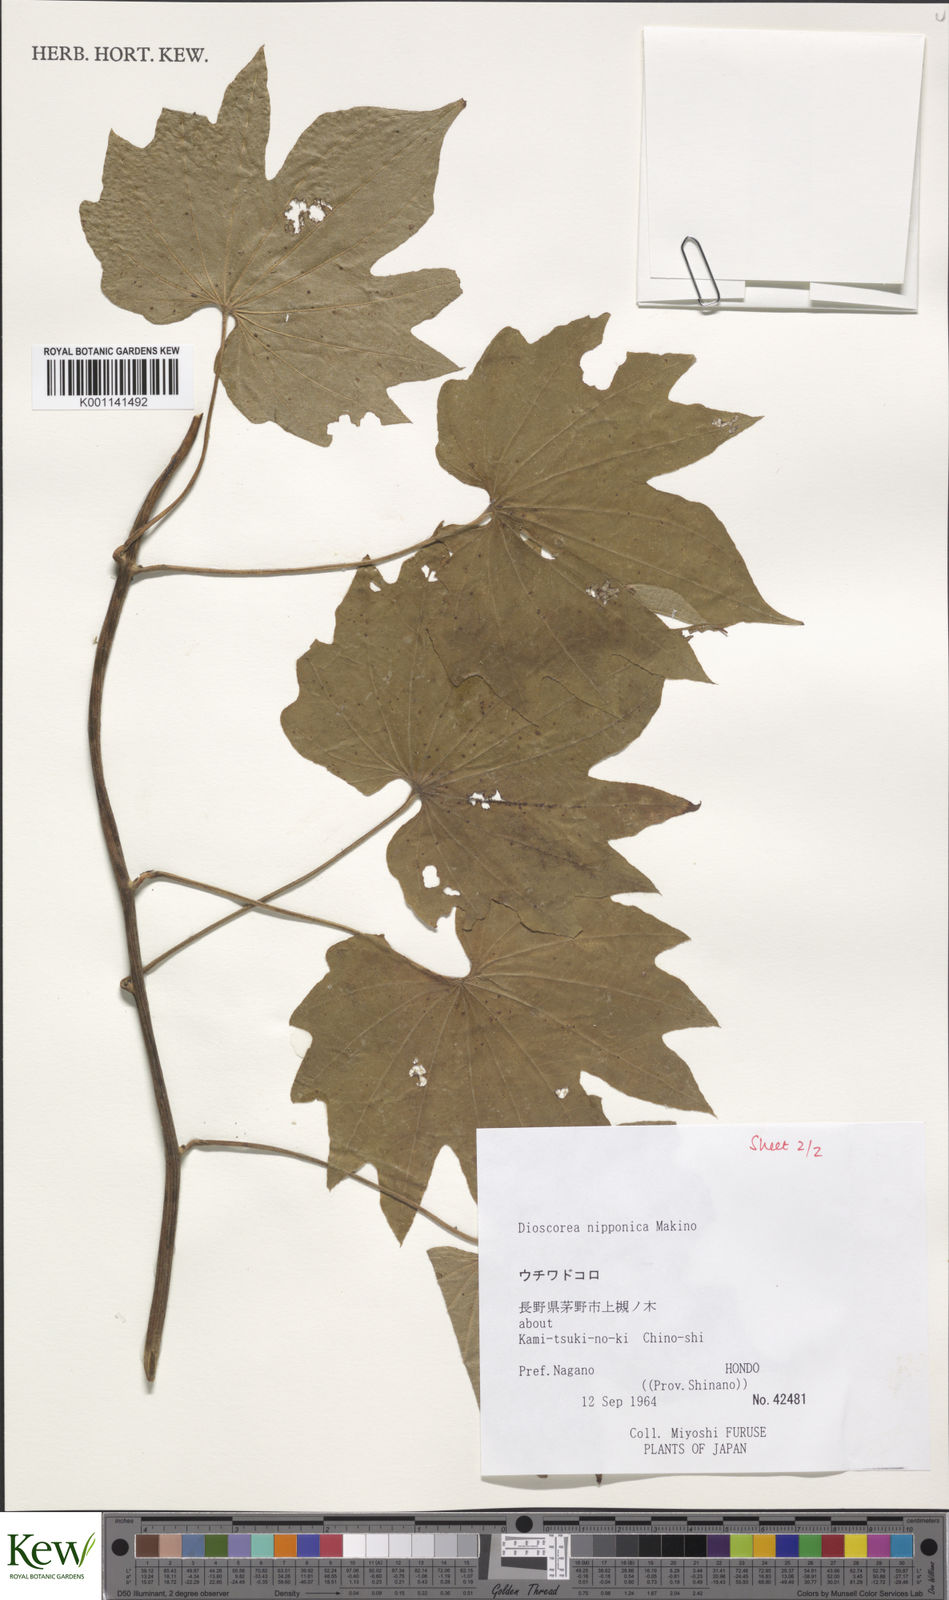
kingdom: Plantae
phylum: Tracheophyta
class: Liliopsida
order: Dioscoreales
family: Dioscoreaceae
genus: Dioscorea
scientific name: Dioscorea nipponica
